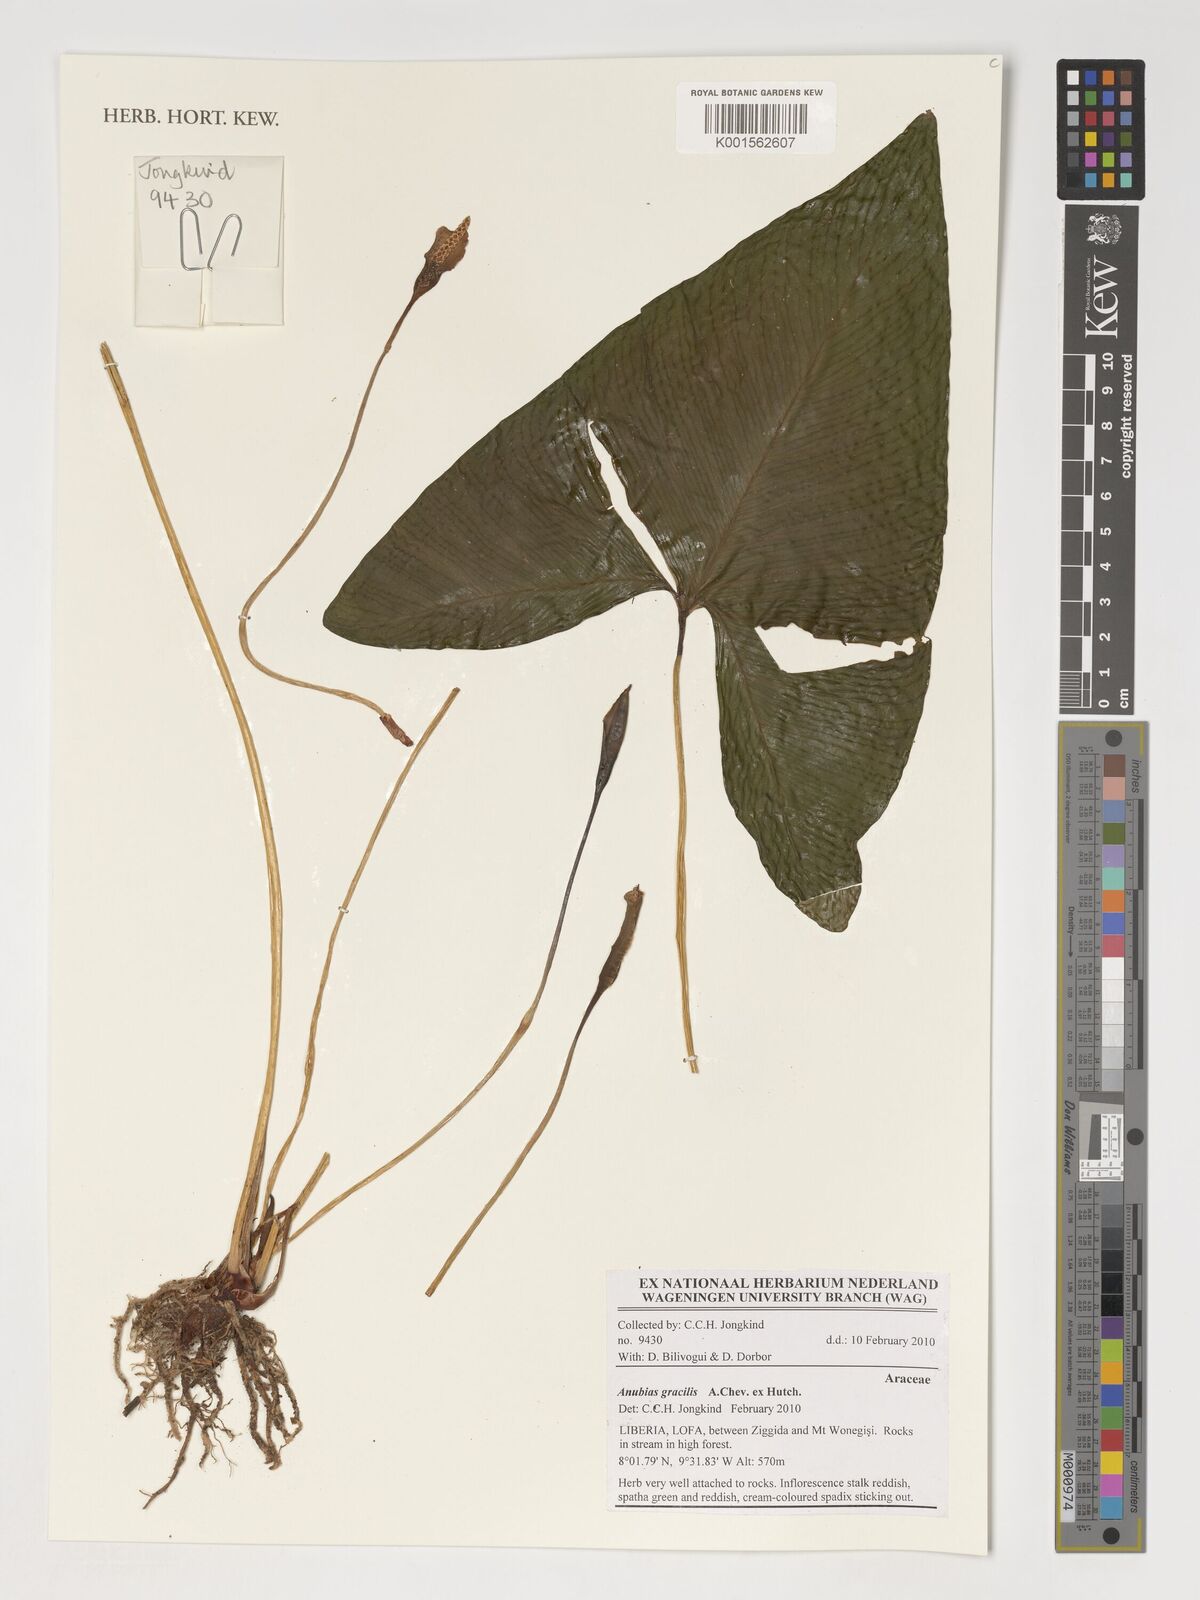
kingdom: Plantae
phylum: Tracheophyta
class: Liliopsida
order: Alismatales
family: Araceae
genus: Anubias
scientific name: Anubias gracilis
